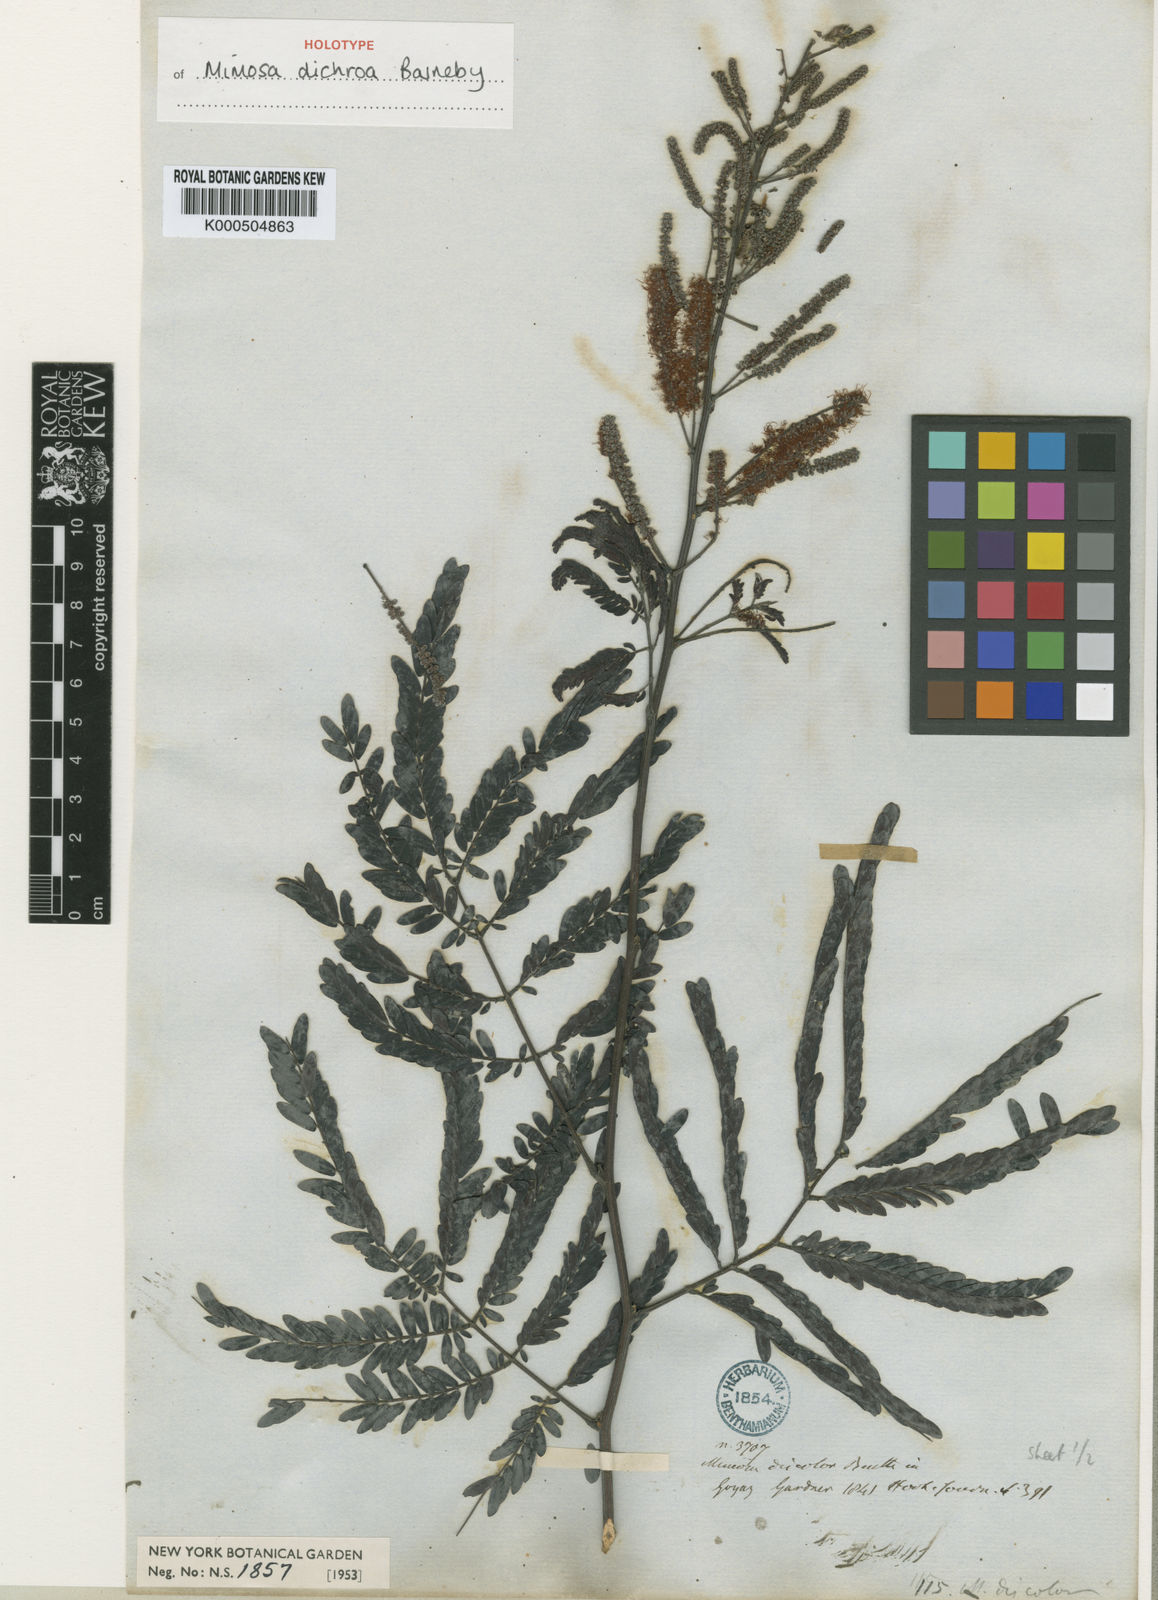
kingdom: Plantae
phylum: Tracheophyta
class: Magnoliopsida
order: Fabales
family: Fabaceae
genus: Mimosa
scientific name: Mimosa
